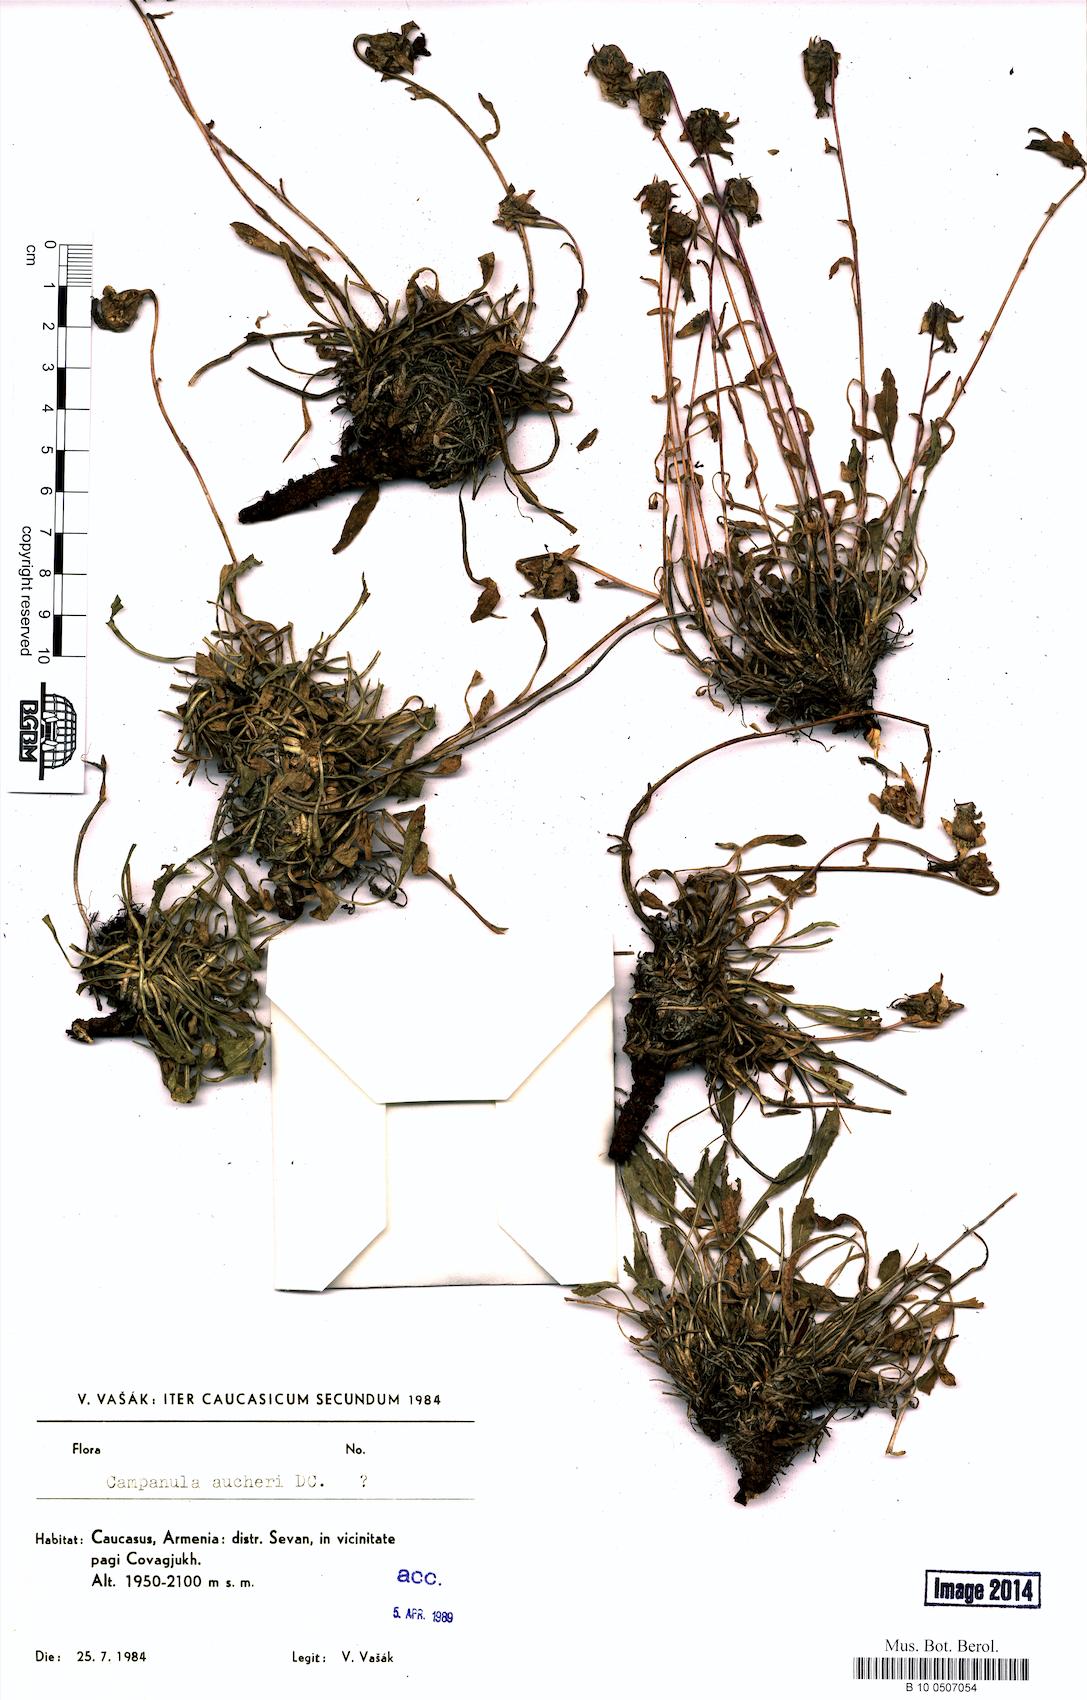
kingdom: Plantae
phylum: Tracheophyta
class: Magnoliopsida
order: Asterales
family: Campanulaceae
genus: Campanula
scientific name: Campanula saxifraga
